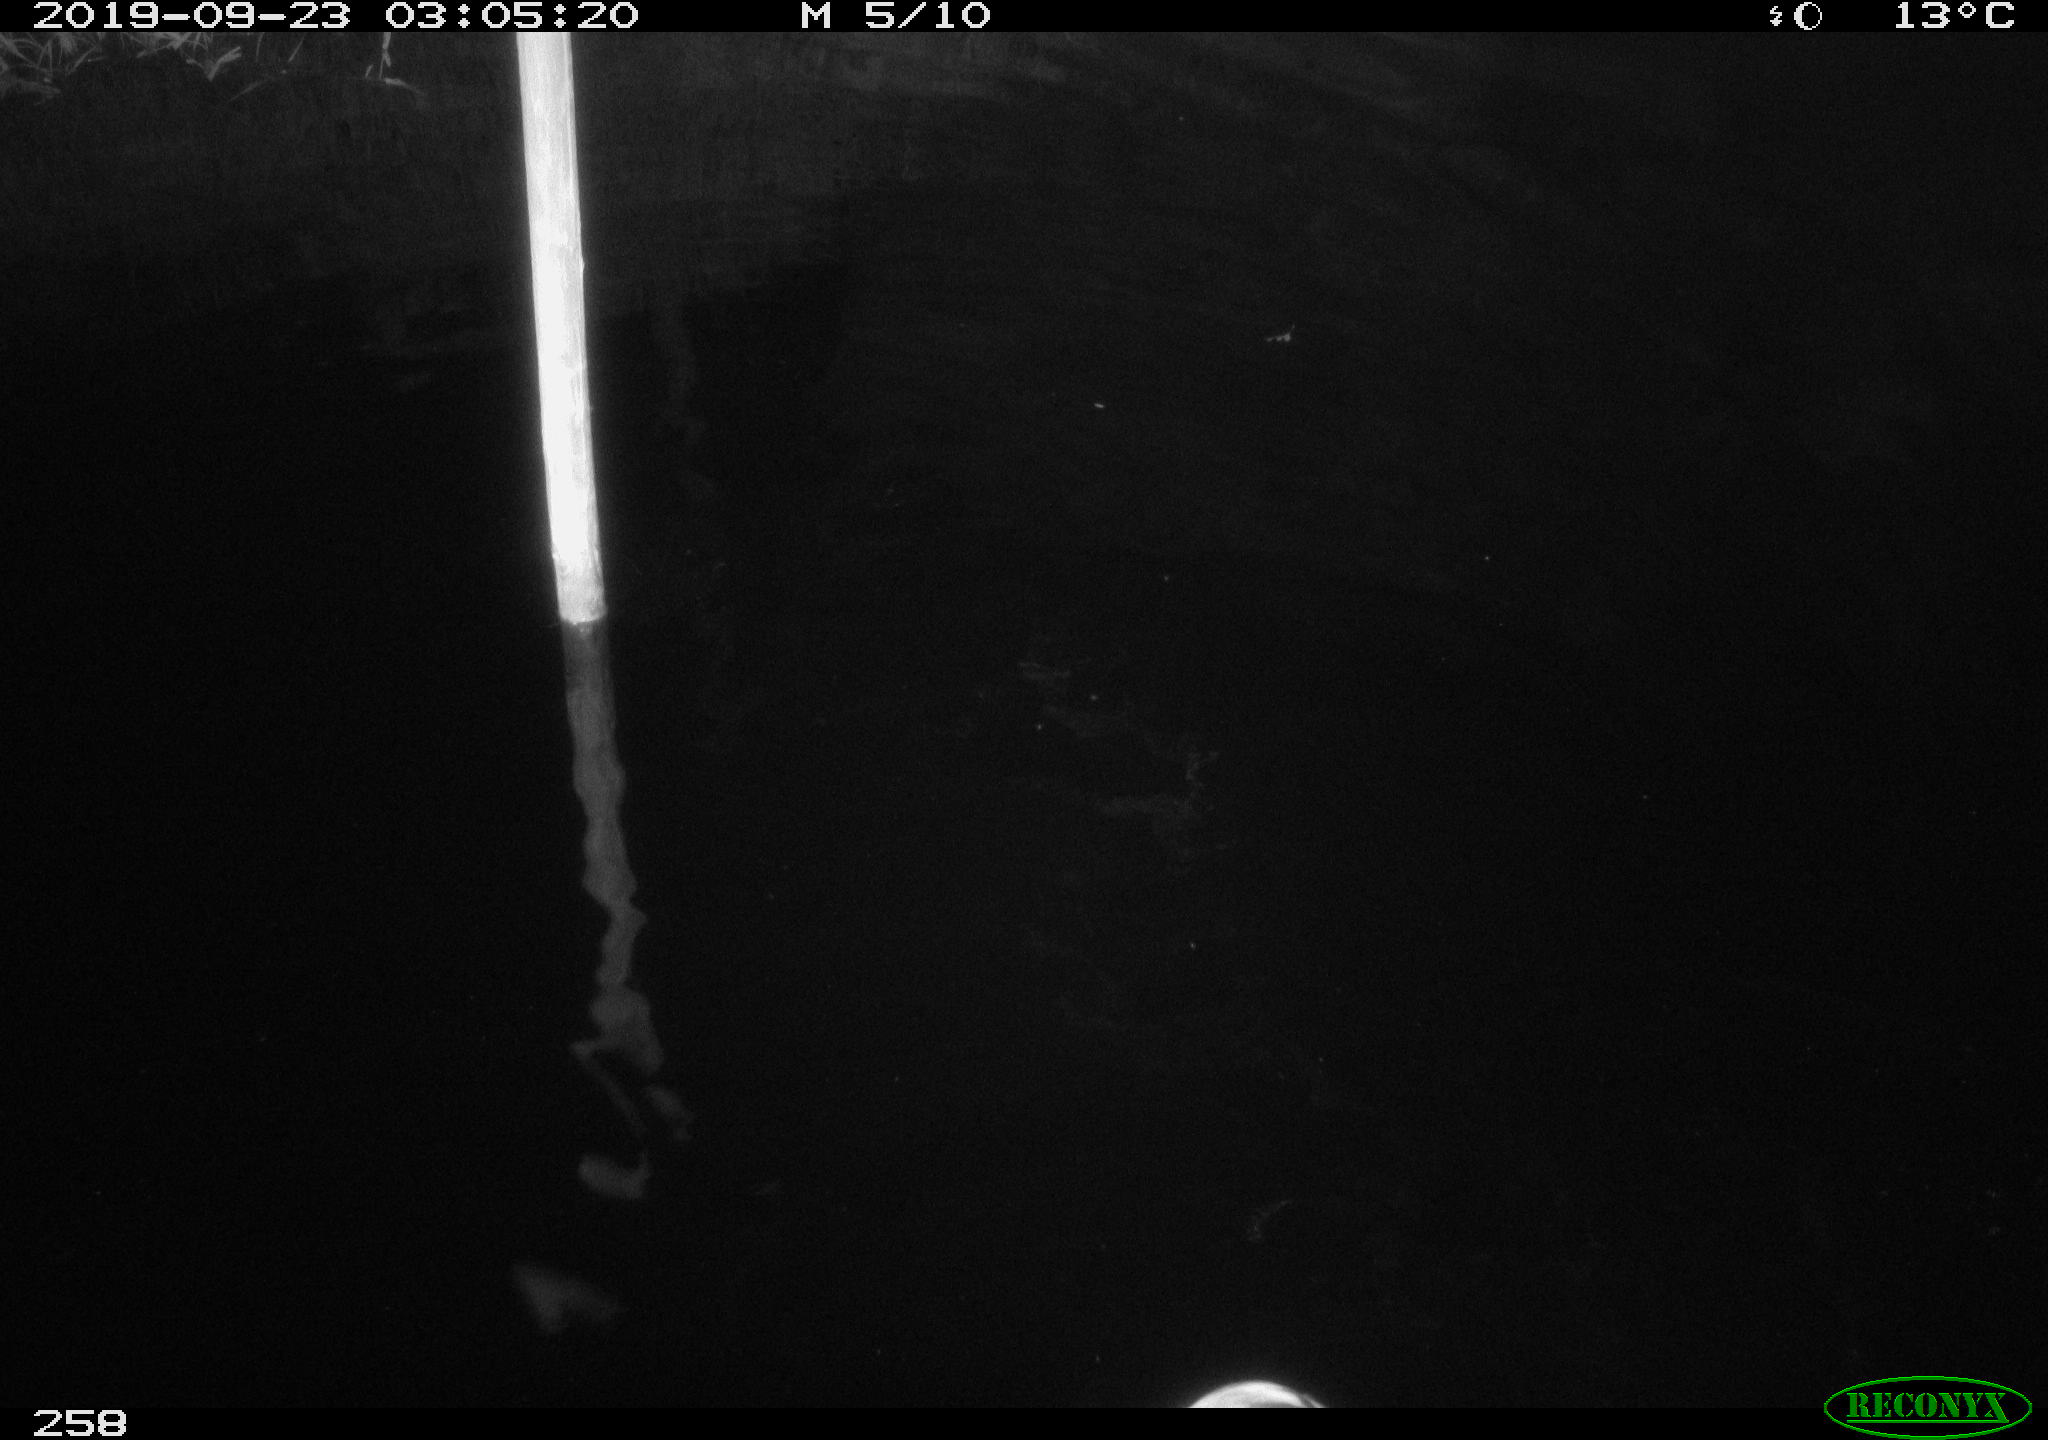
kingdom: Animalia
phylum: Chordata
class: Aves
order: Pelecaniformes
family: Ardeidae
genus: Ardea
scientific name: Ardea cinerea
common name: Grey heron
